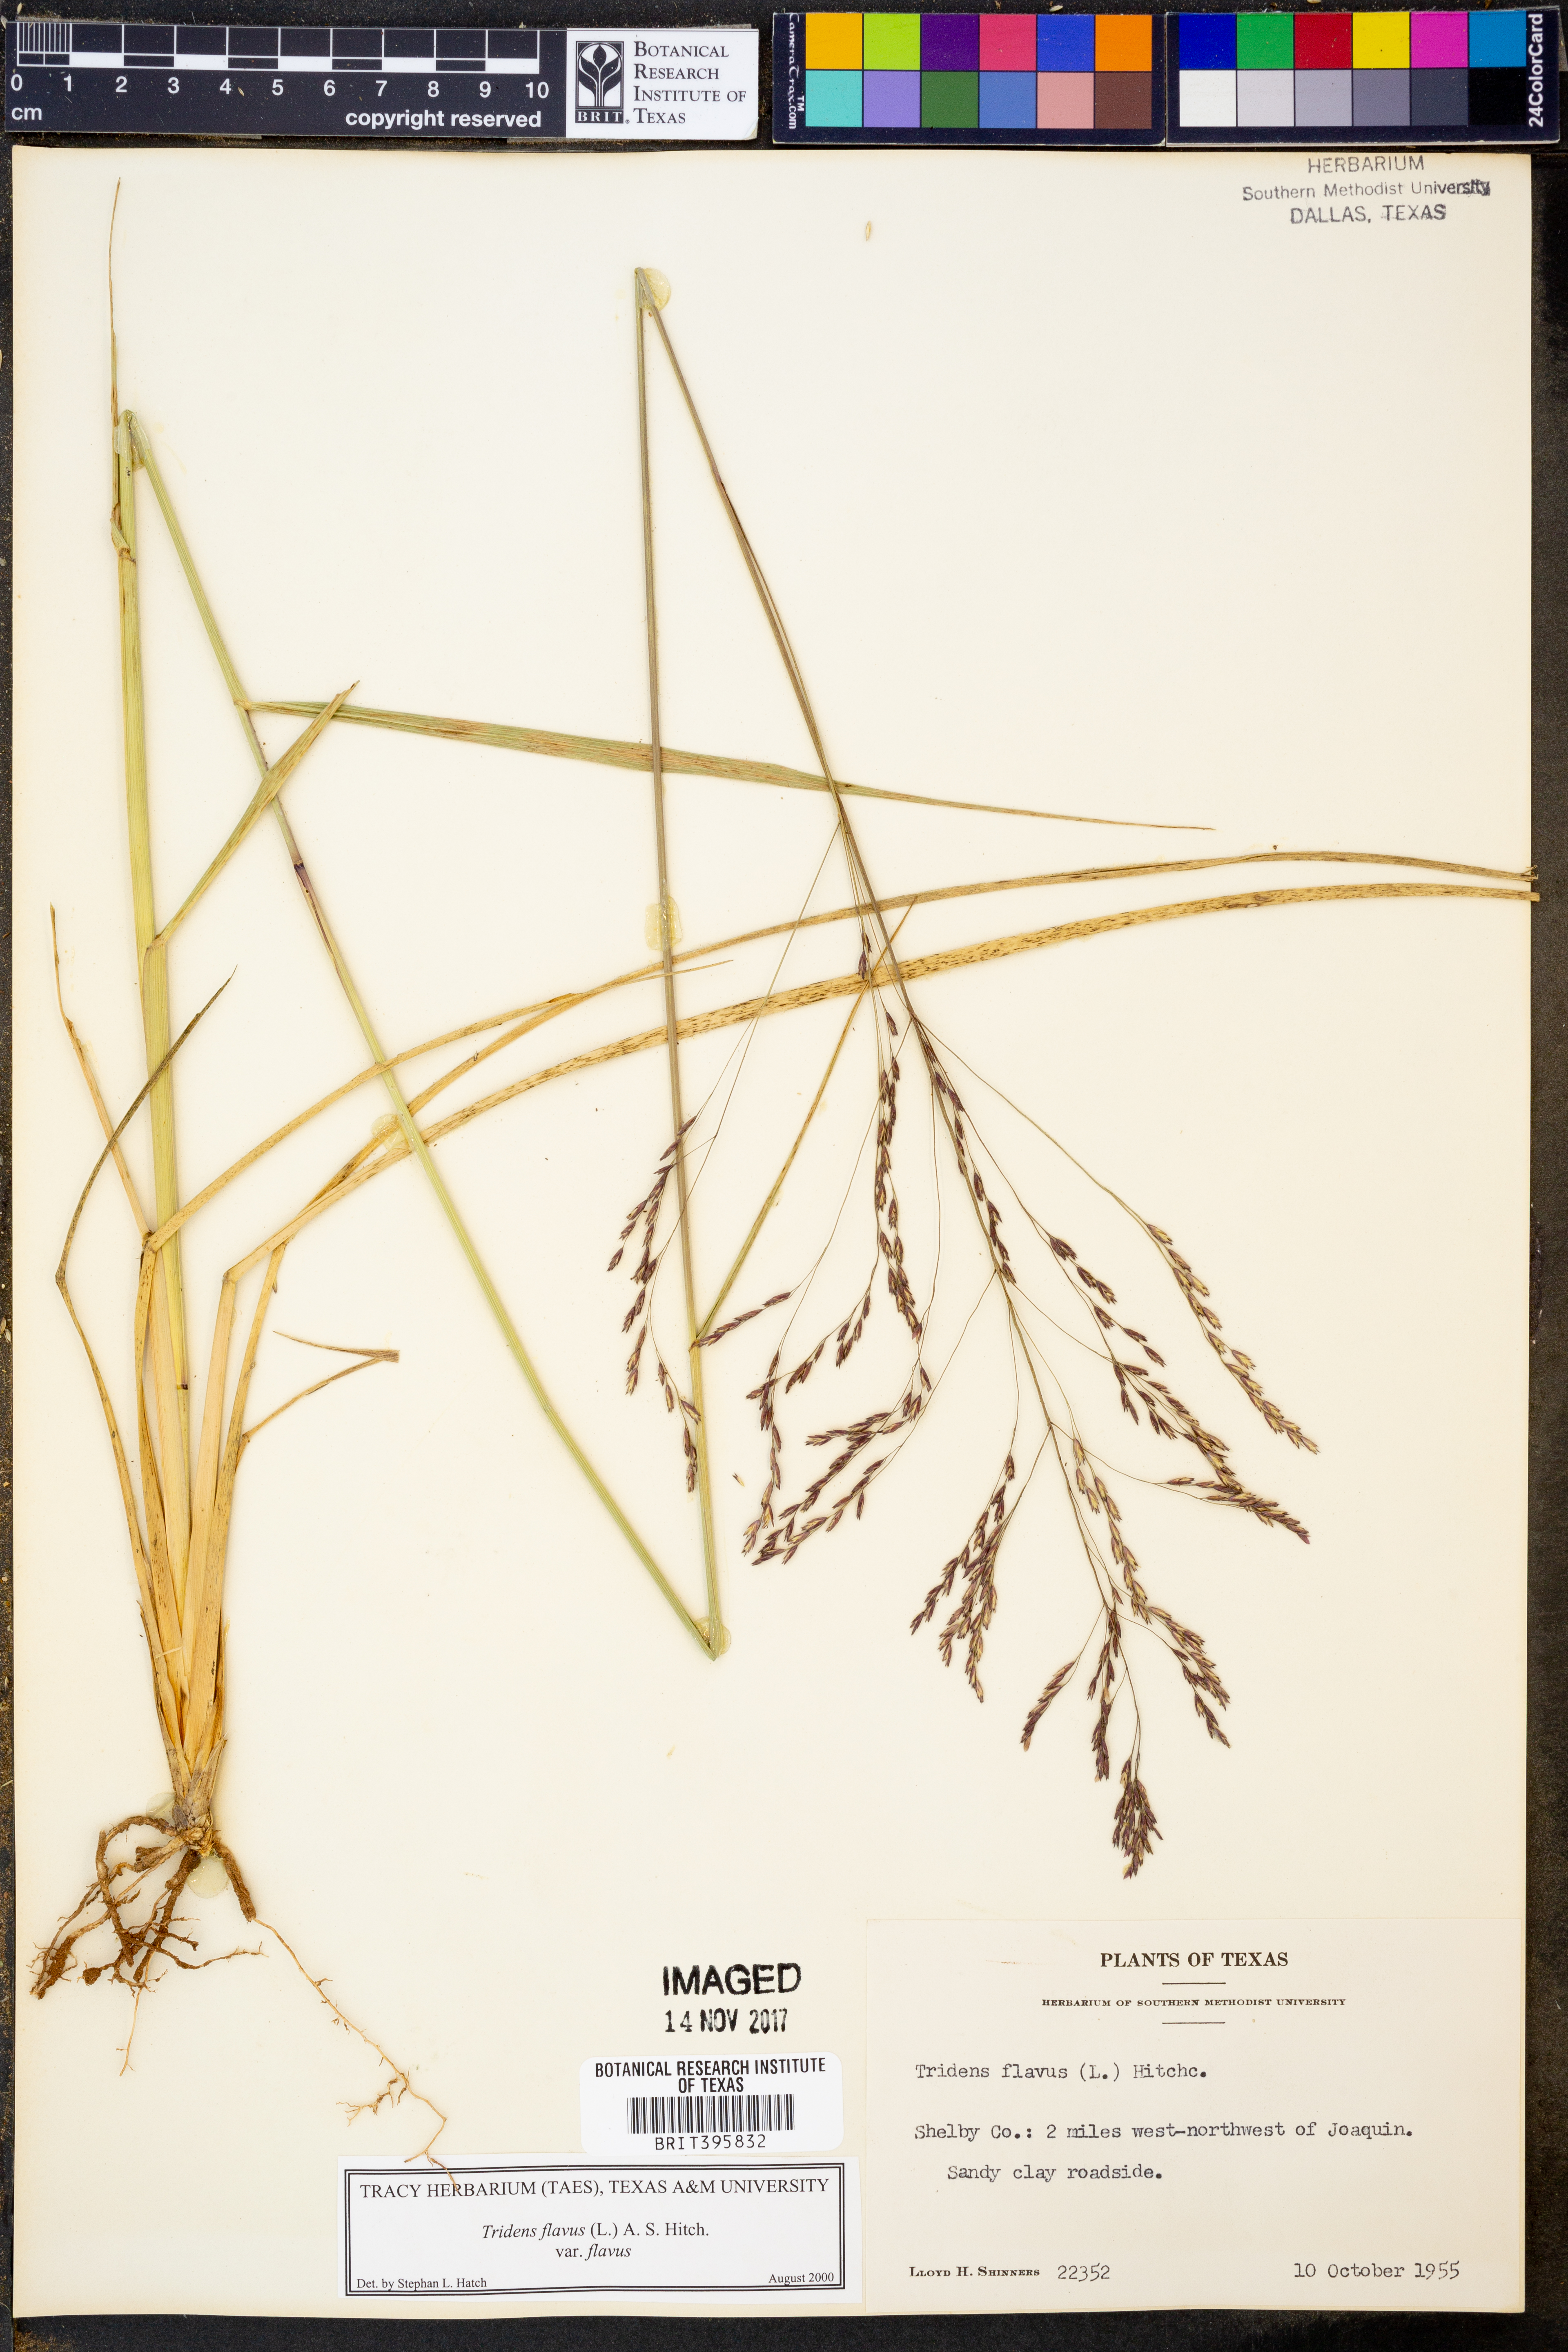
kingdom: Plantae
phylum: Tracheophyta
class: Liliopsida
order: Poales
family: Poaceae
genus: Tridens
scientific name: Tridens flavus
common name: Purpletop
